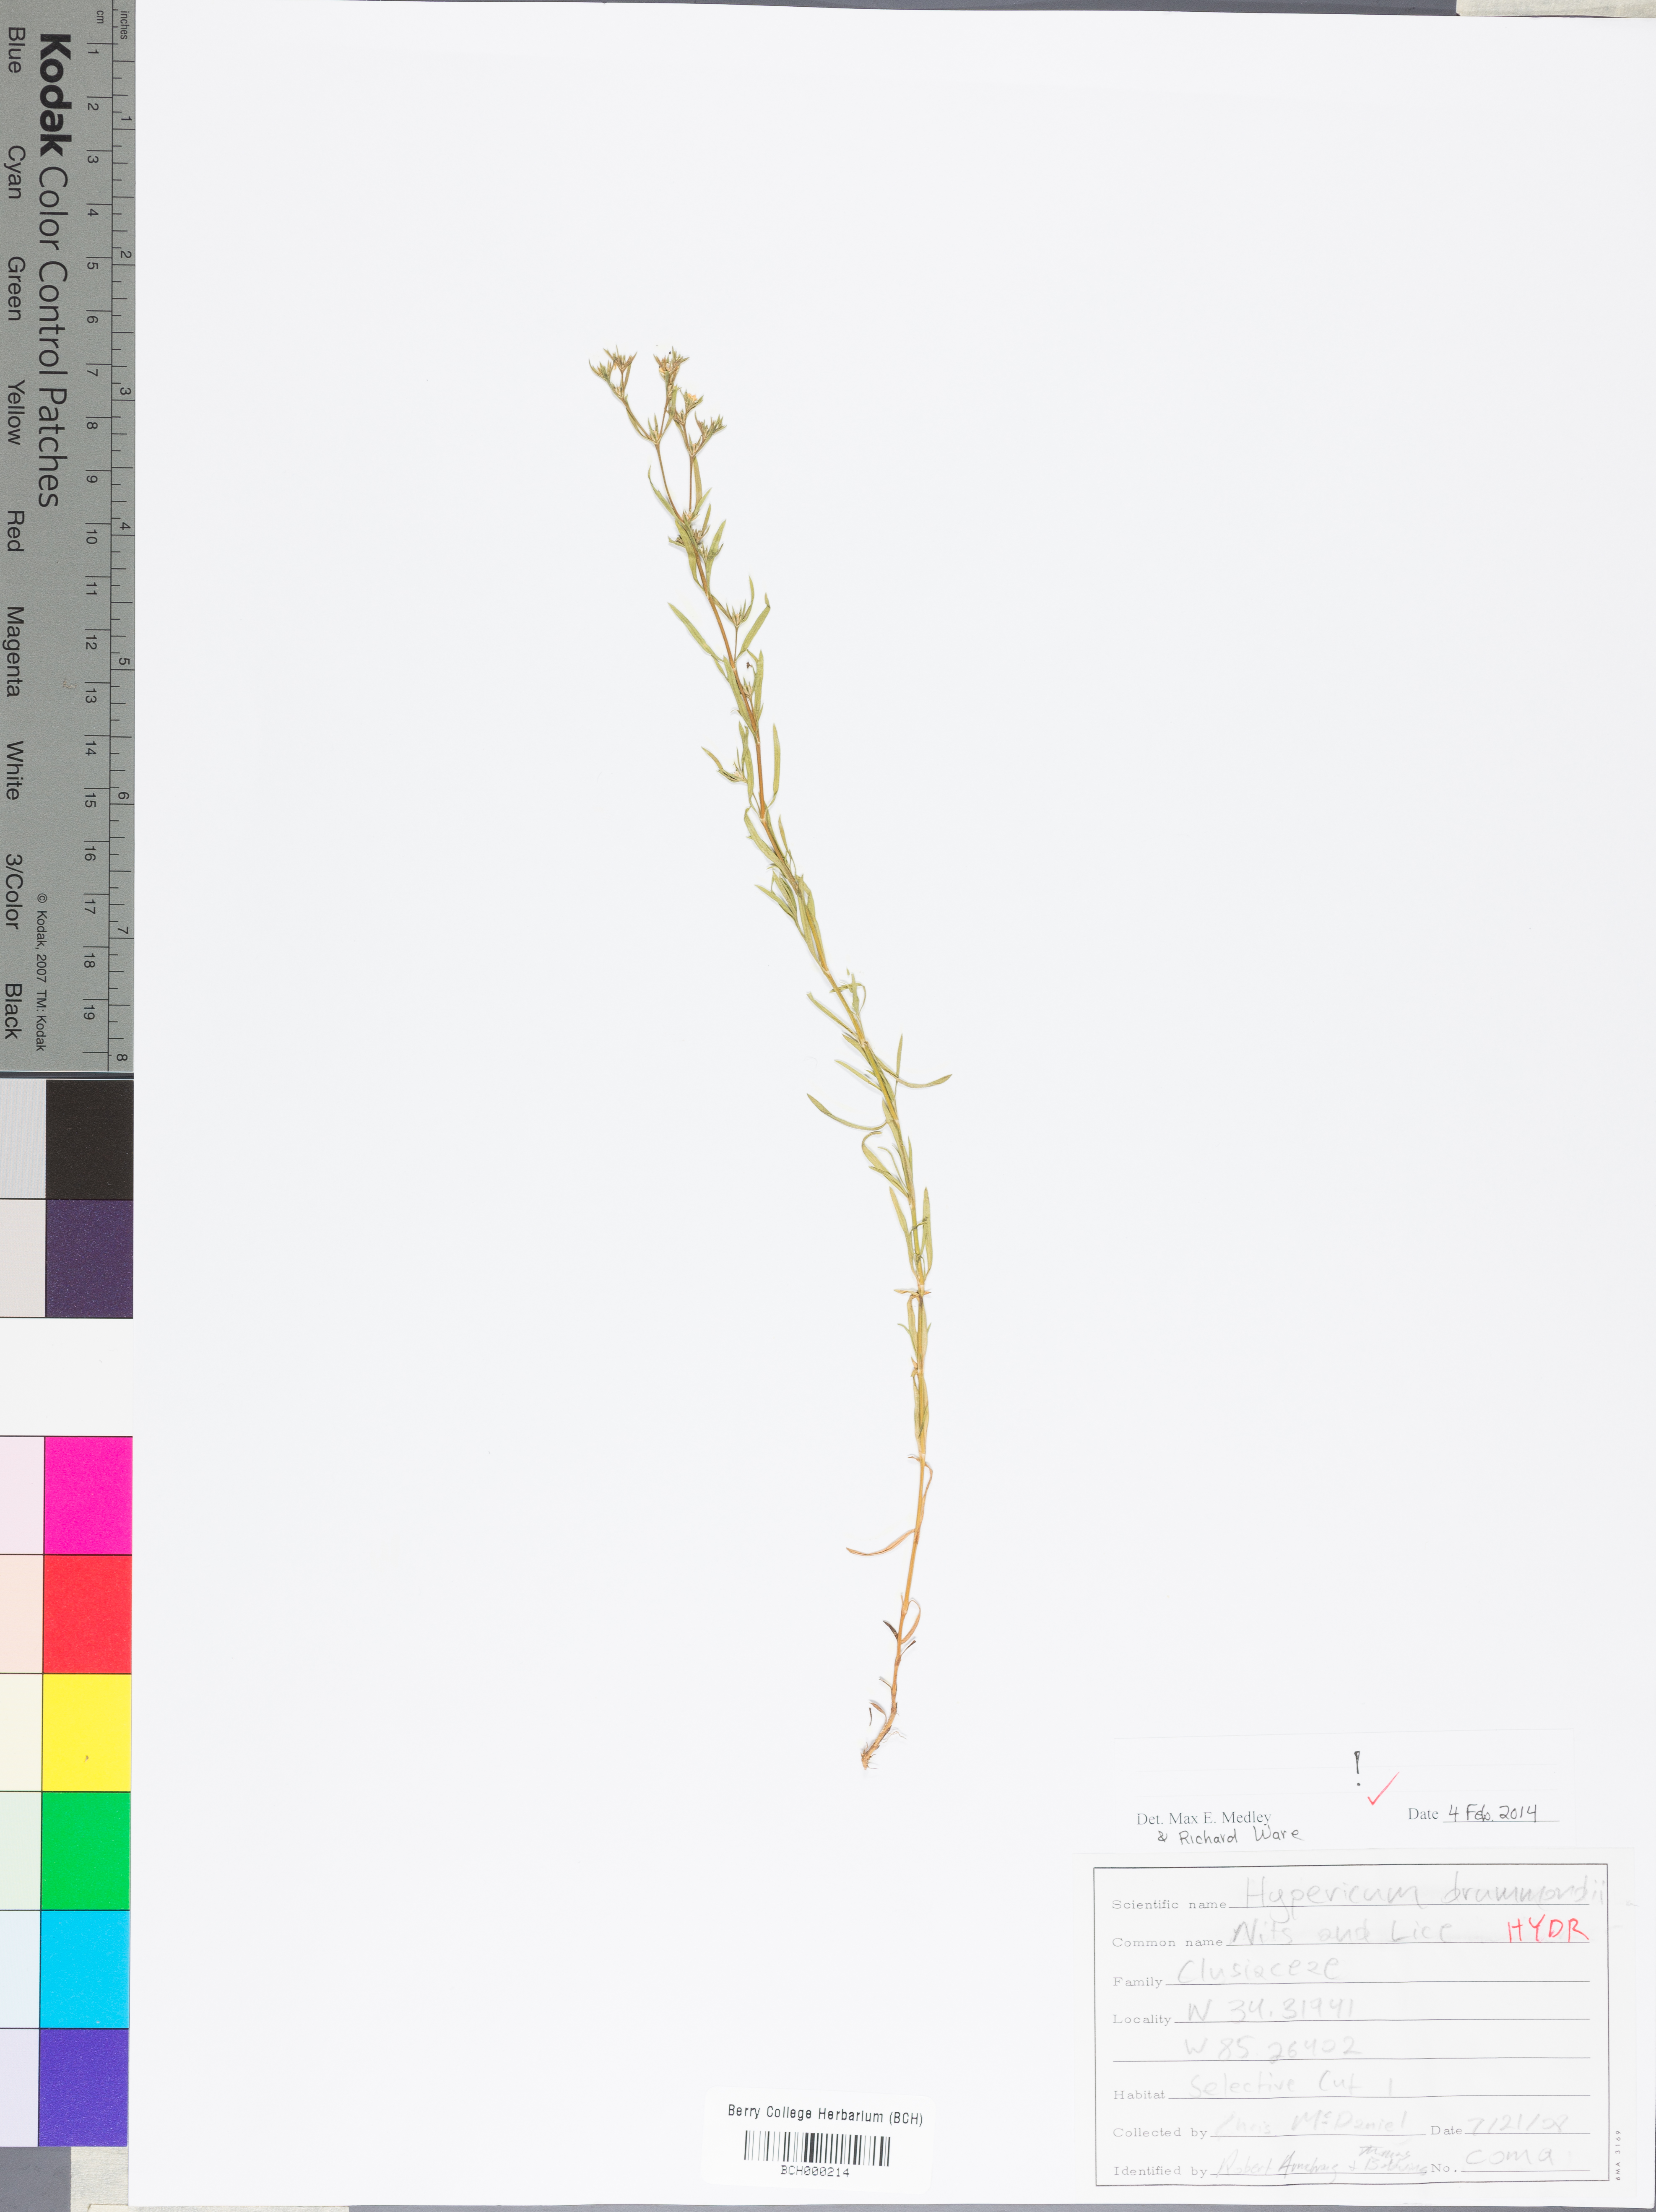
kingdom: Plantae
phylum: Tracheophyta
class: Magnoliopsida
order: Malpighiales
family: Hypericaceae
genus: Hypericum
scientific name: Hypericum drummondii
